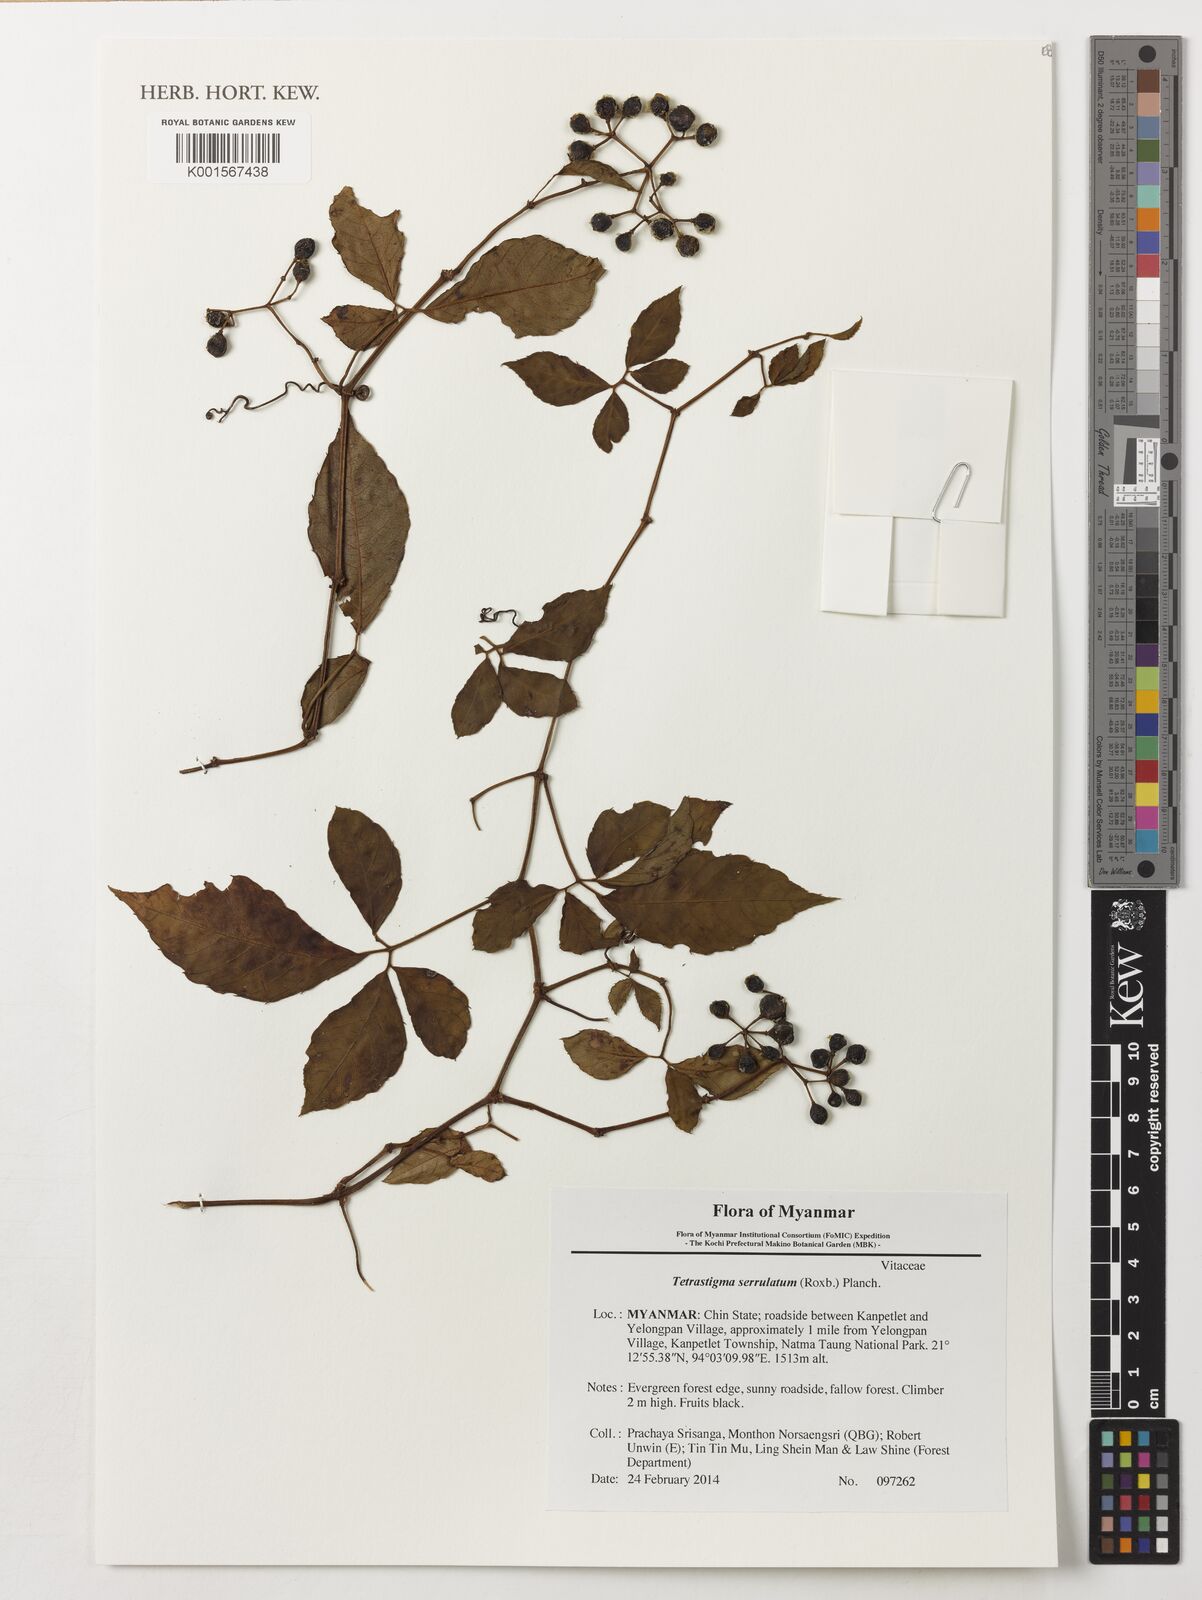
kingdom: Plantae
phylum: Tracheophyta
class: Magnoliopsida
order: Vitales
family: Vitaceae
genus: Tetrastigma
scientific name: Tetrastigma serrulatum
